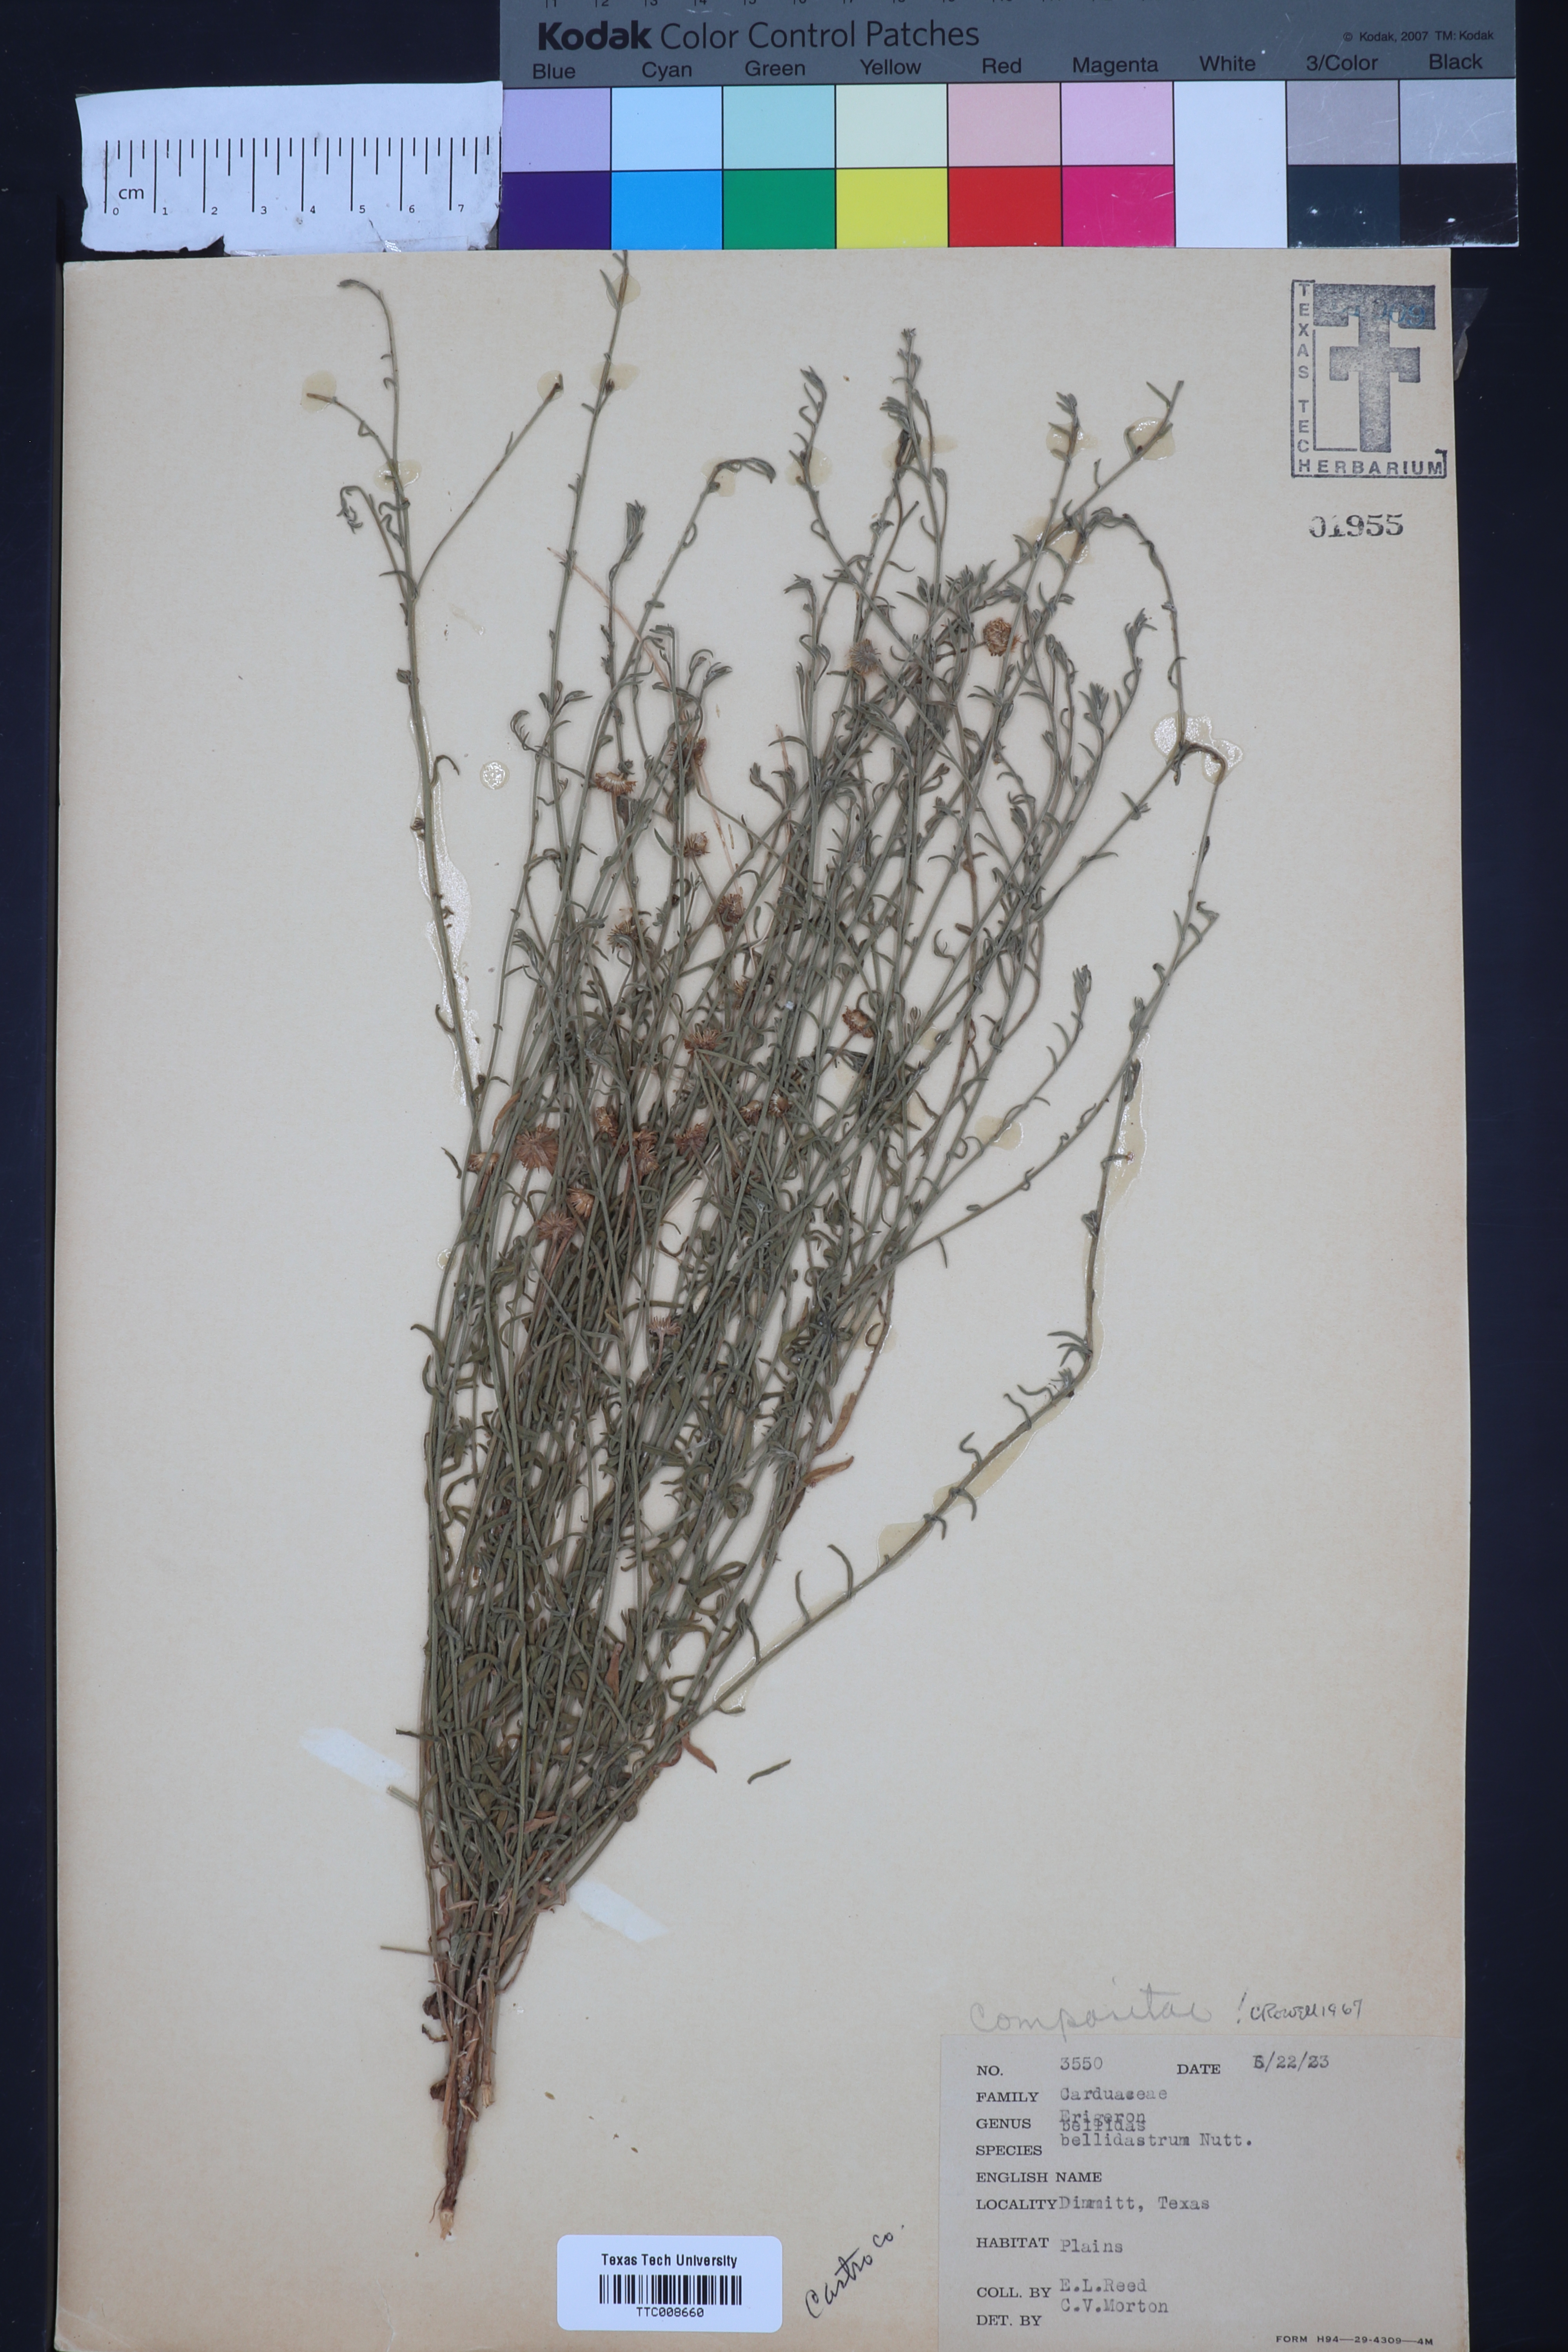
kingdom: Plantae
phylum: Tracheophyta
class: Magnoliopsida
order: Asterales
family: Asteraceae
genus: Erigeron
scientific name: Erigeron bellidiastrum
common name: Sand fleabane
